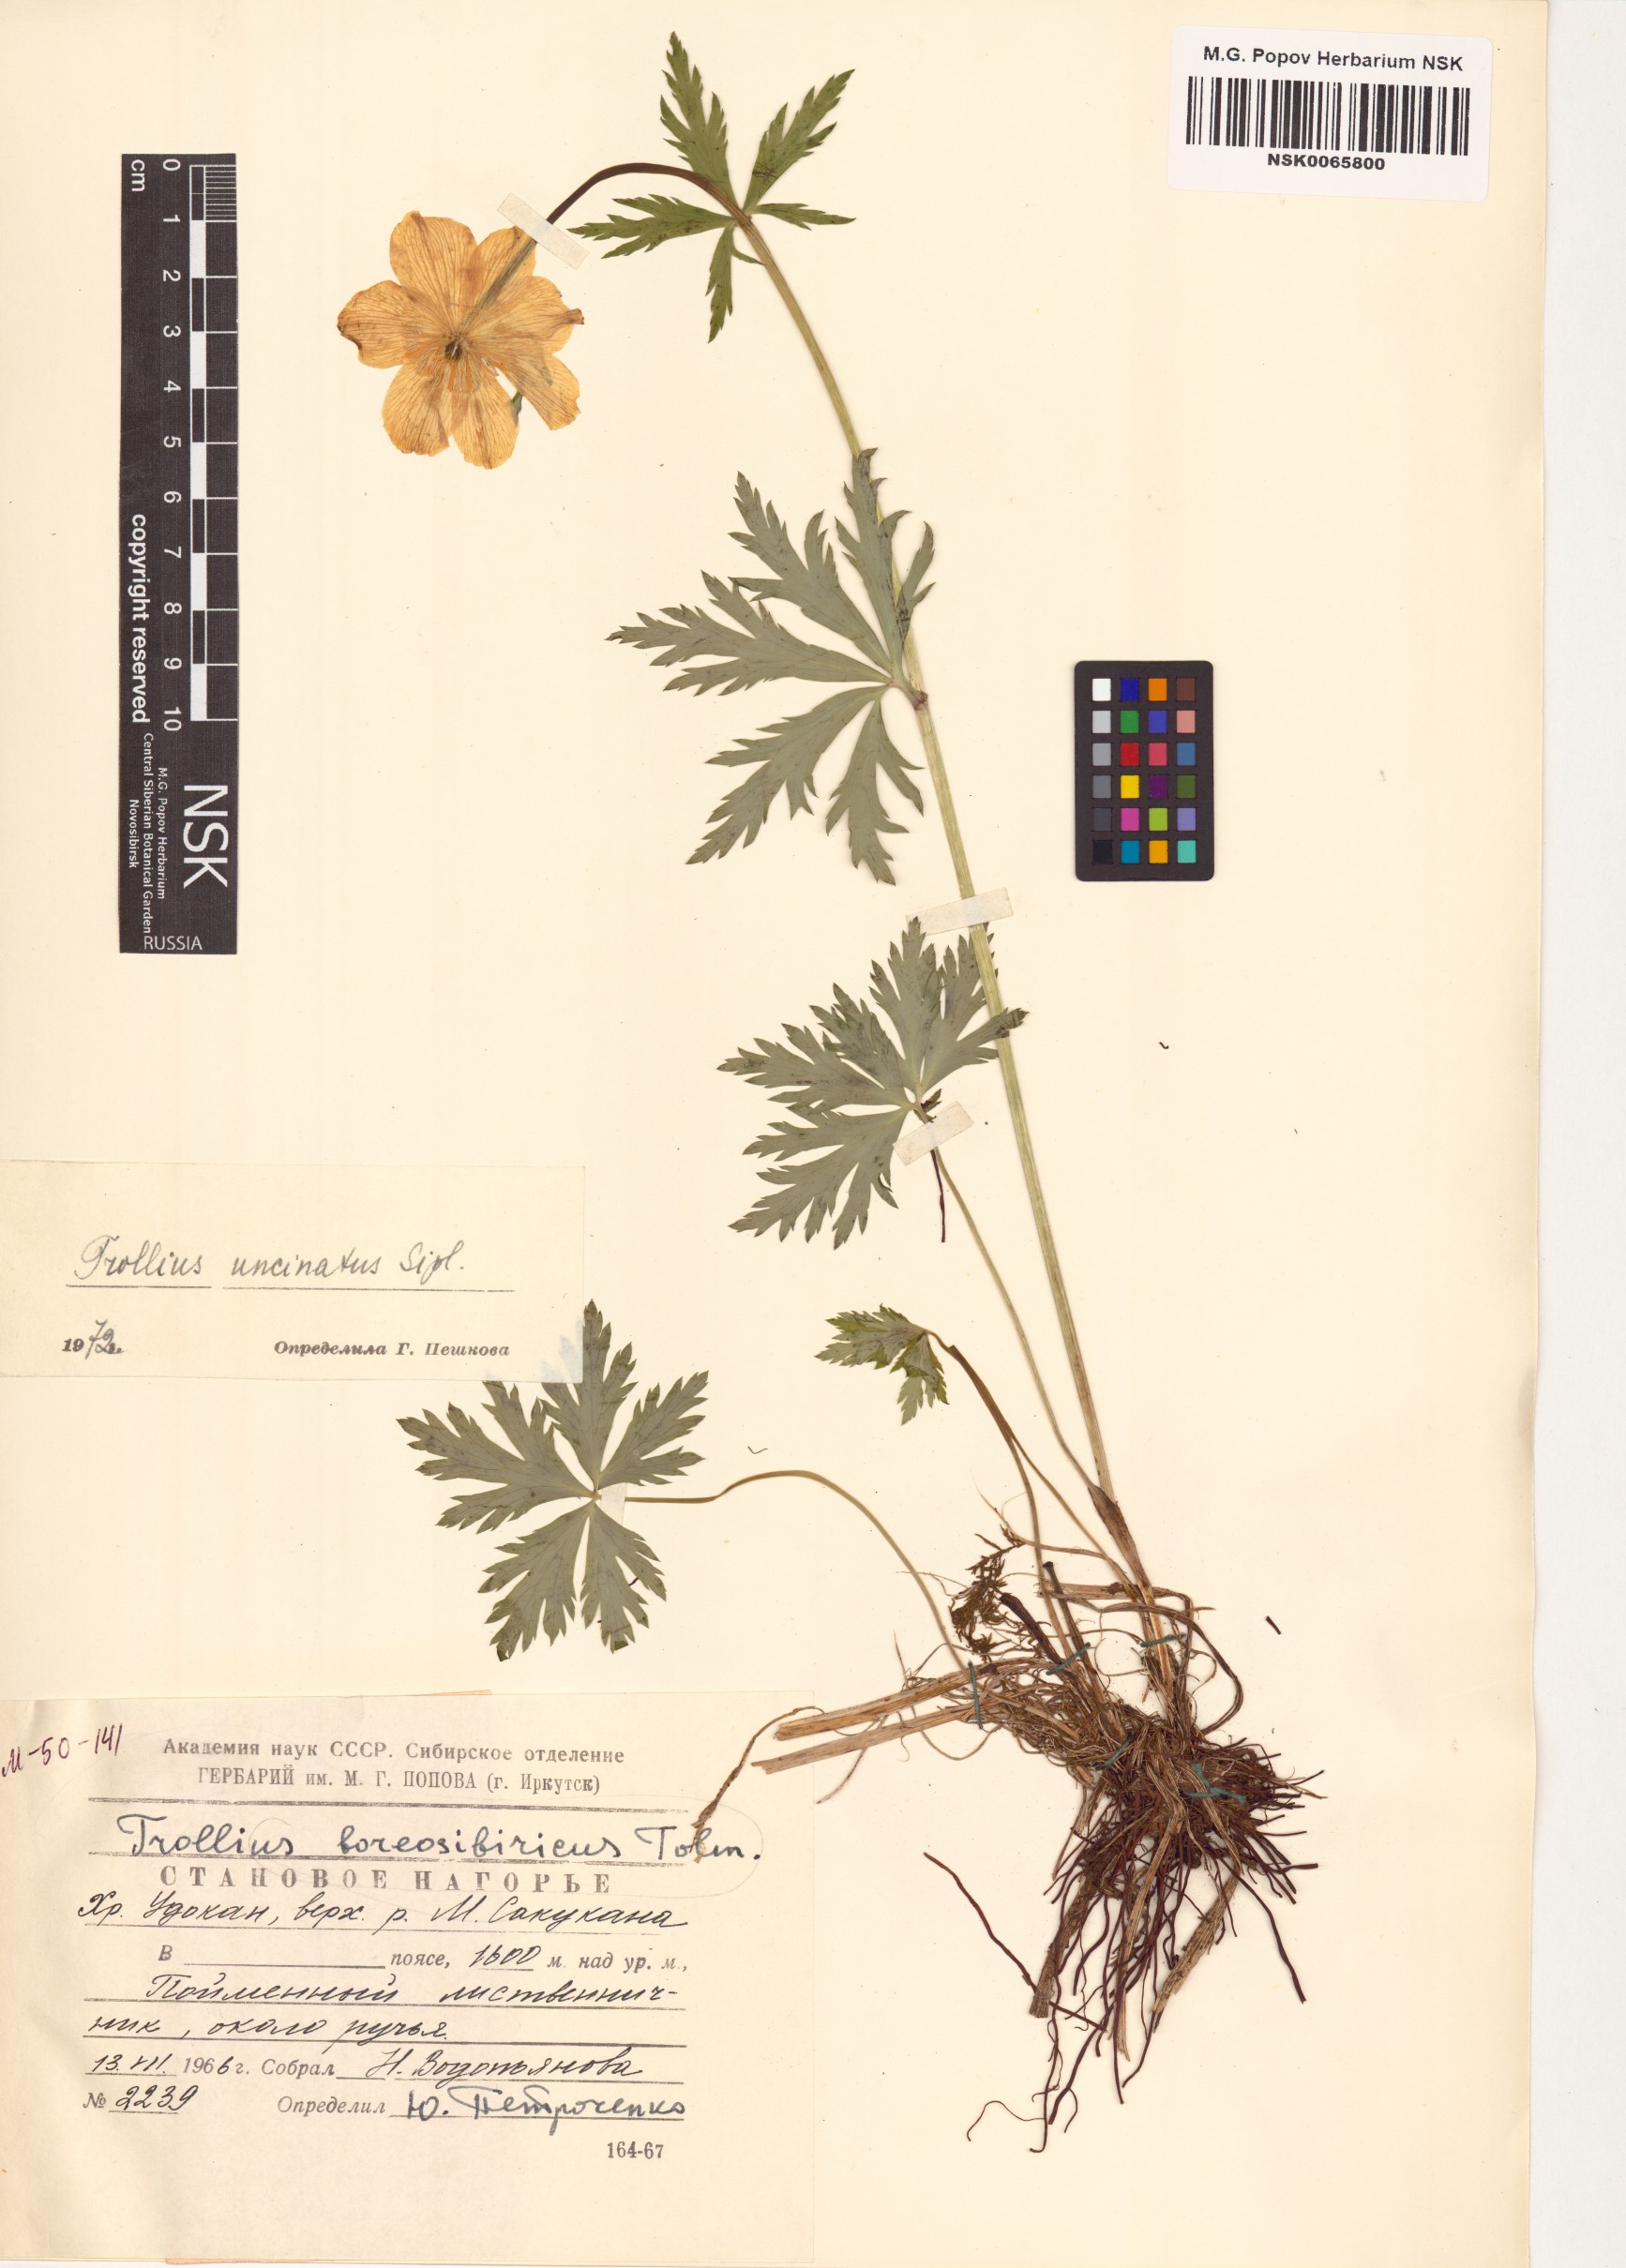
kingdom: Plantae
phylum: Tracheophyta
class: Magnoliopsida
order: Ranunculales
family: Ranunculaceae
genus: Trollius
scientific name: Trollius riederianus
